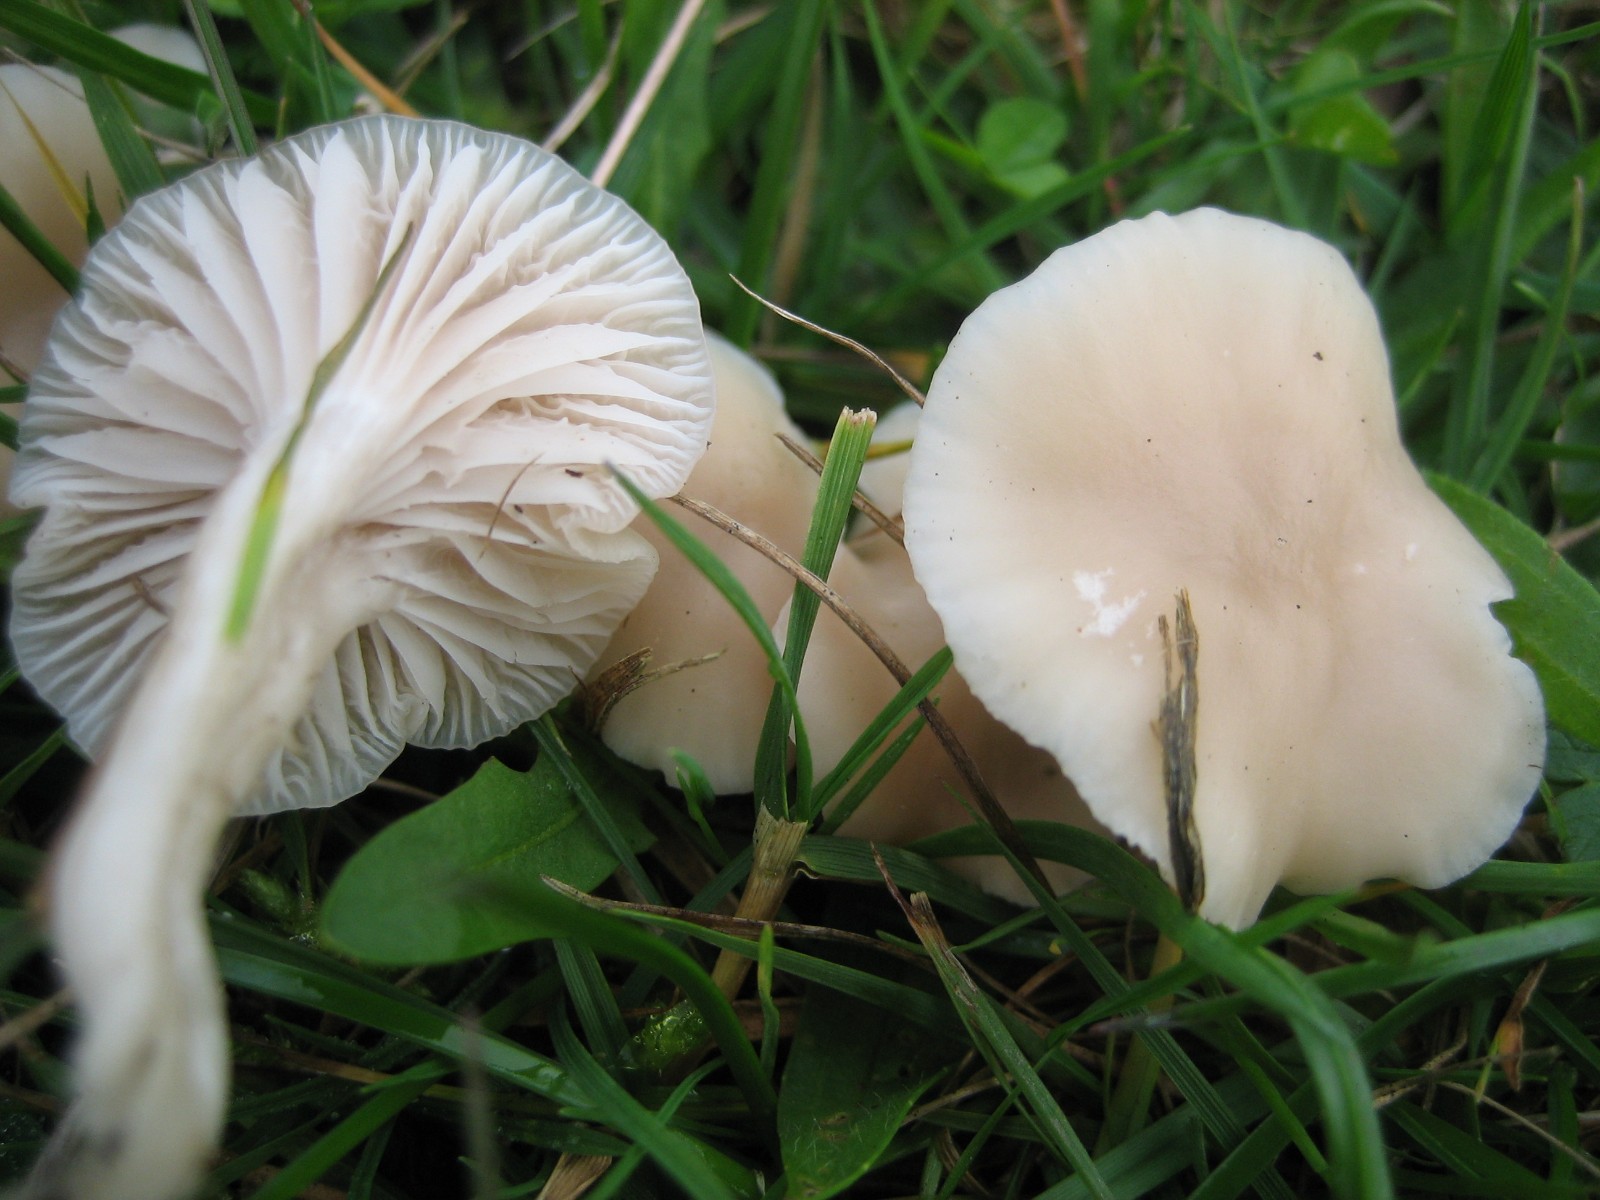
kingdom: Fungi
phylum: Basidiomycota
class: Agaricomycetes
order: Agaricales
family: Hygrophoraceae
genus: Cuphophyllus
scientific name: Cuphophyllus russocoriaceus
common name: ruslæder-vokshat
